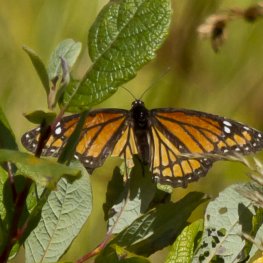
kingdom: Animalia
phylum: Arthropoda
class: Insecta
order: Lepidoptera
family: Nymphalidae
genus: Limenitis
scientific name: Limenitis archippus
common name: Viceroy
